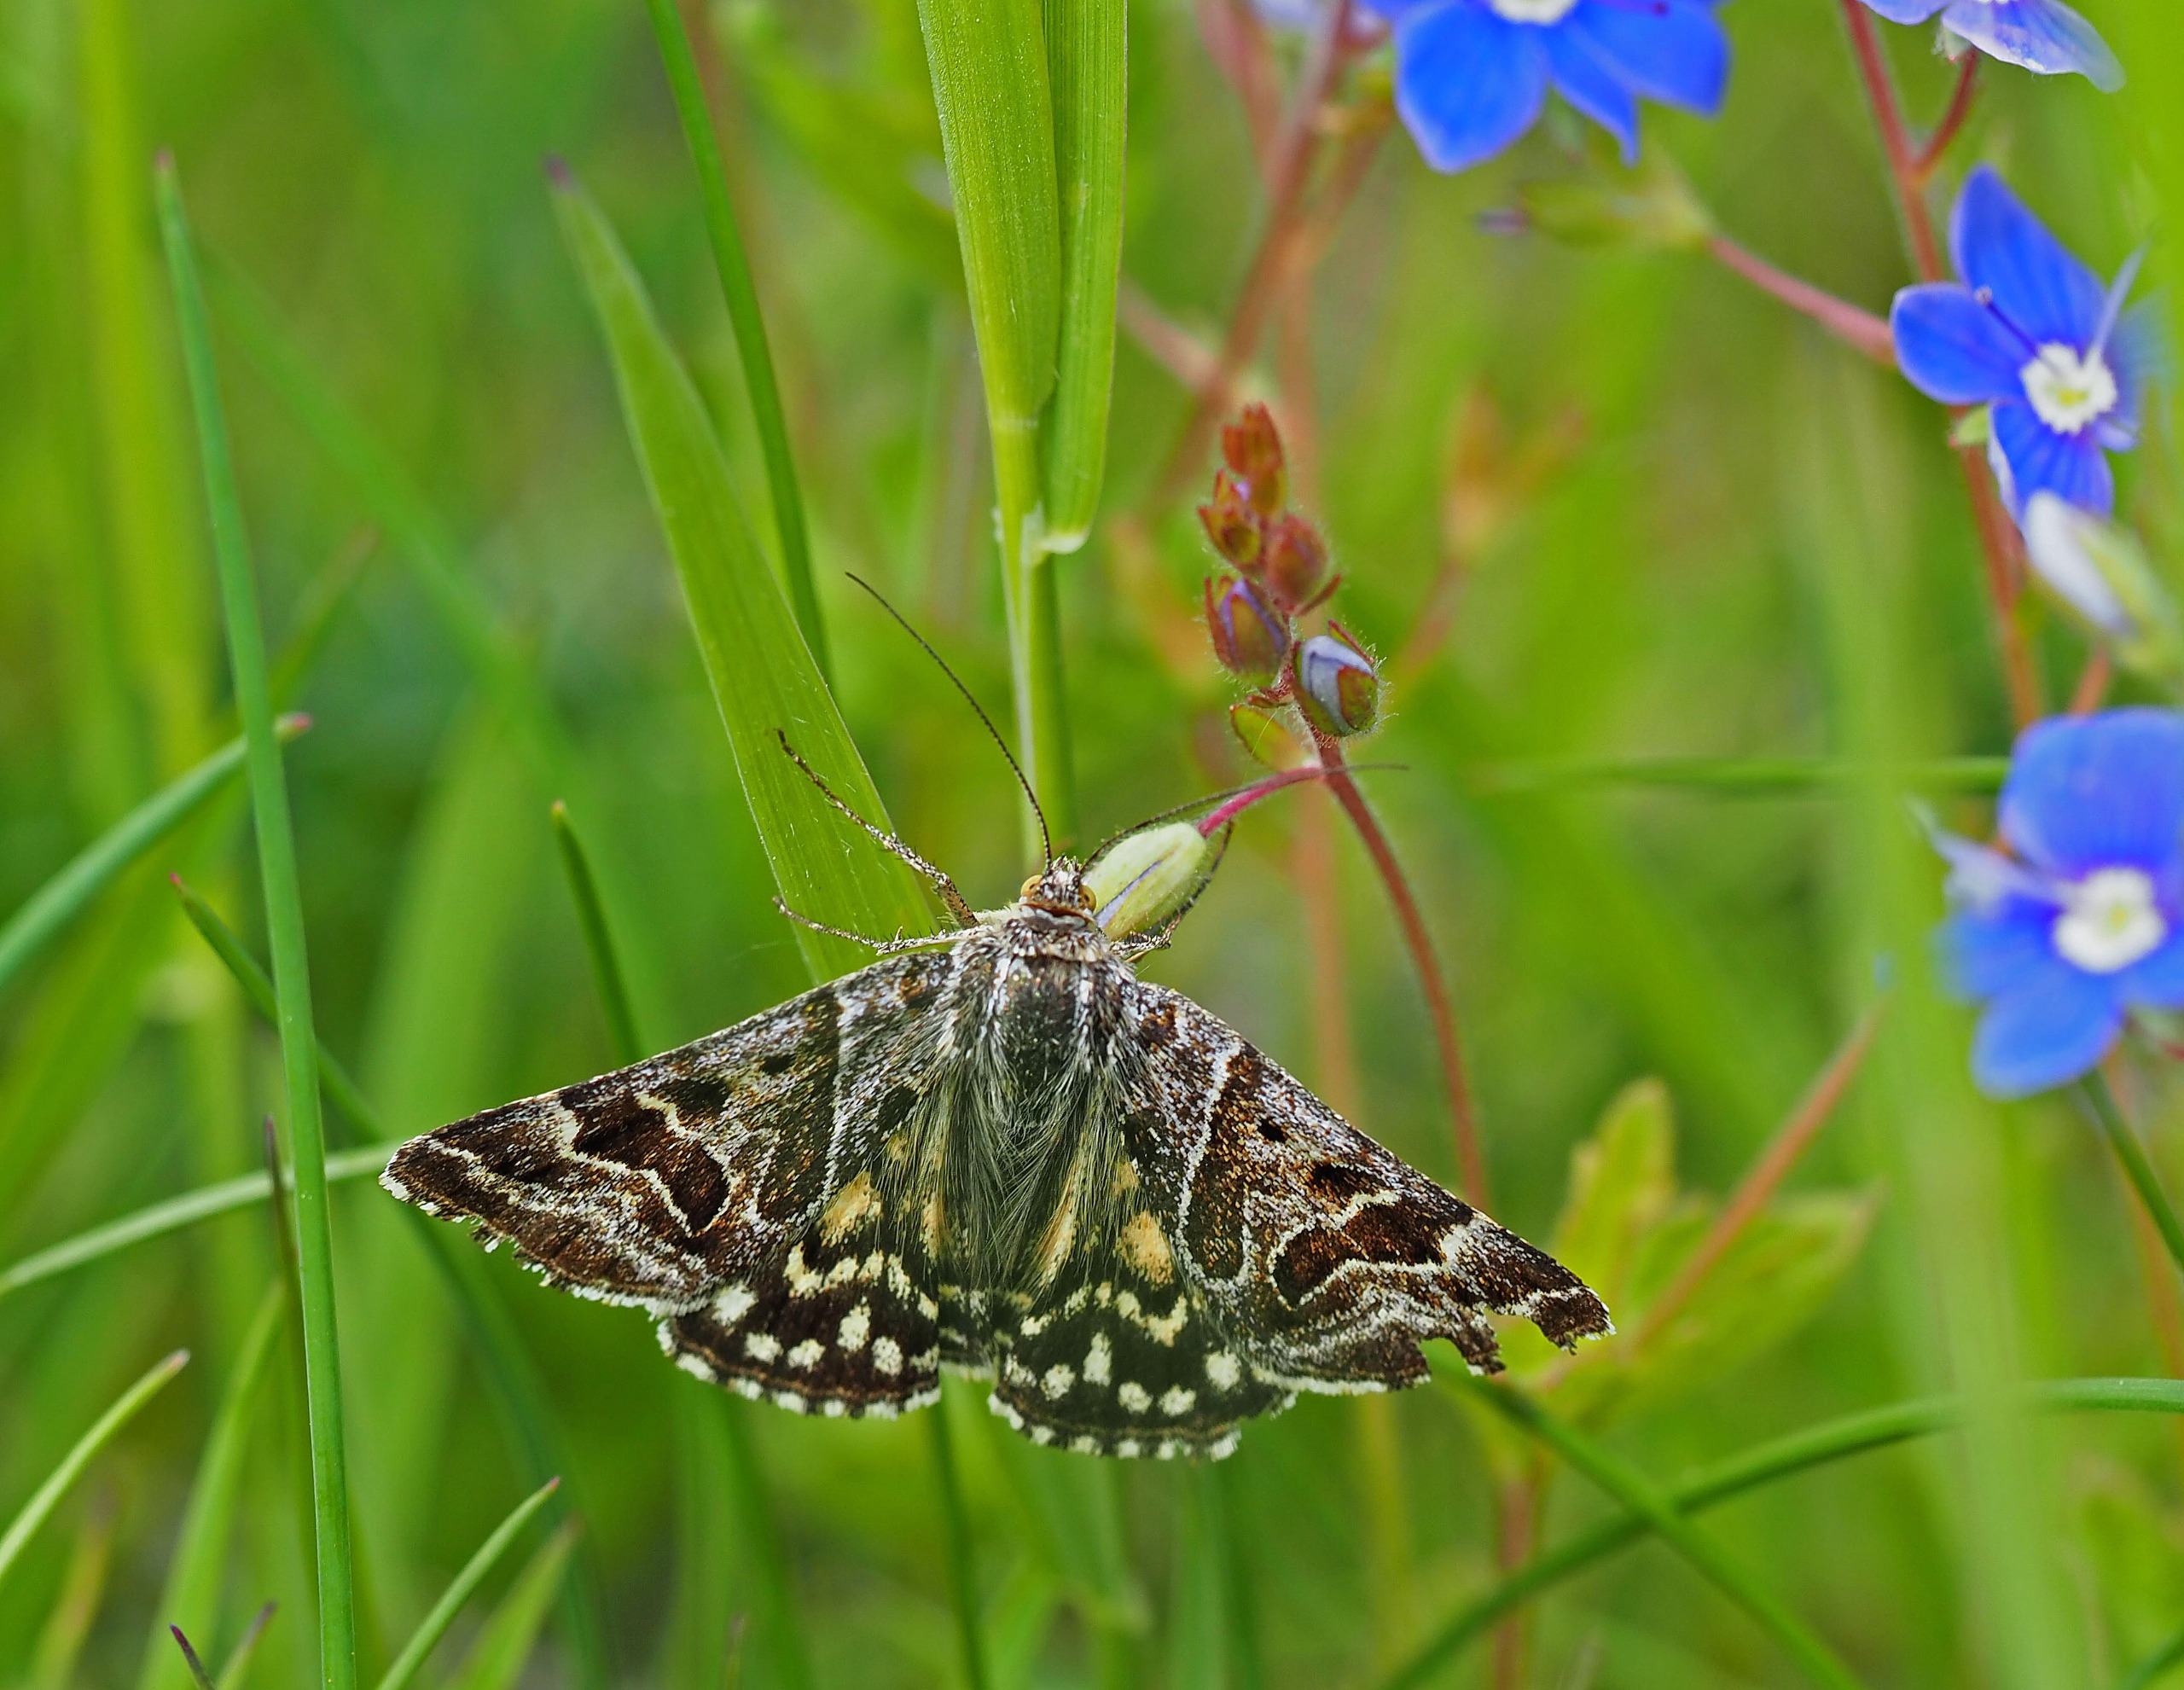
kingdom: Animalia
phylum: Arthropoda
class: Insecta
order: Lepidoptera
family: Erebidae
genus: Callistege
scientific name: Callistege mi
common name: Marmoreret kløverugle
